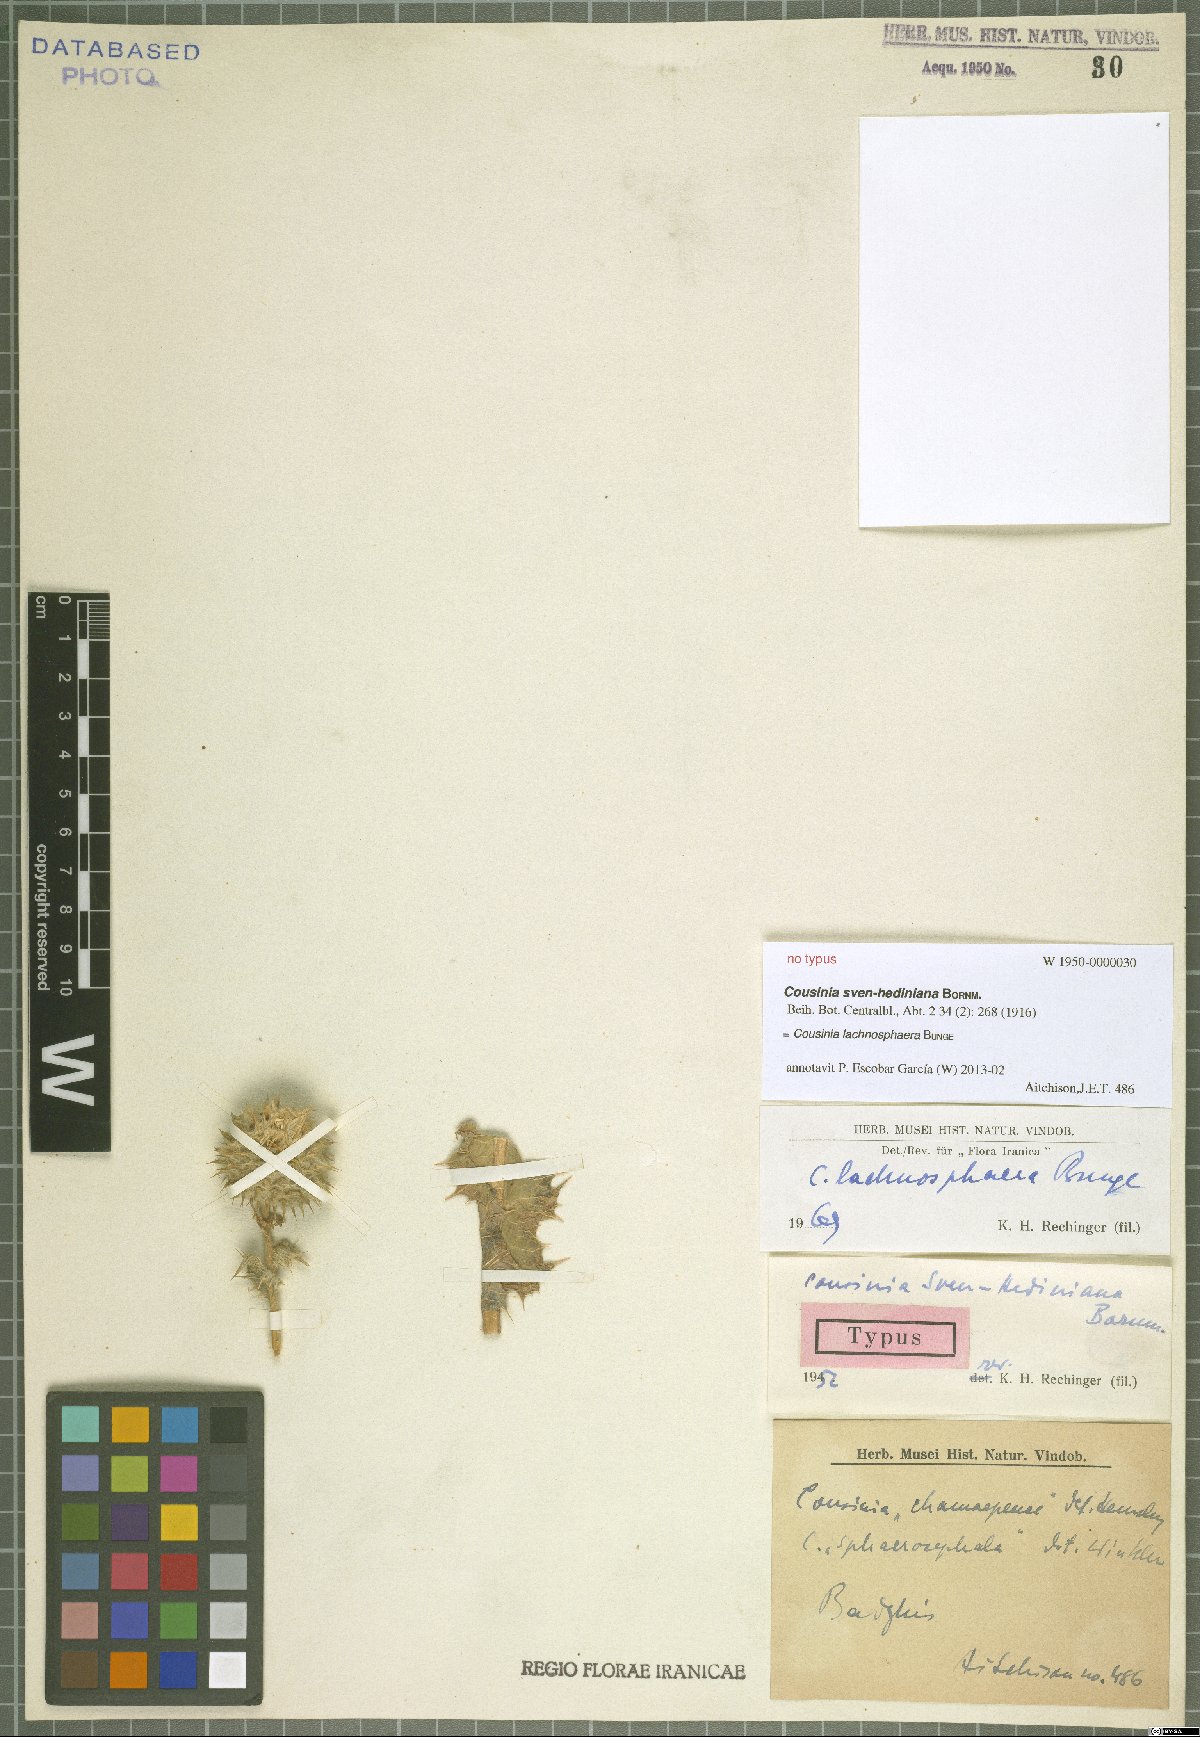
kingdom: Plantae
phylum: Tracheophyta
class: Magnoliopsida
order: Asterales
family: Asteraceae
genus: Cousinia
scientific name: Cousinia lachnosphaera
